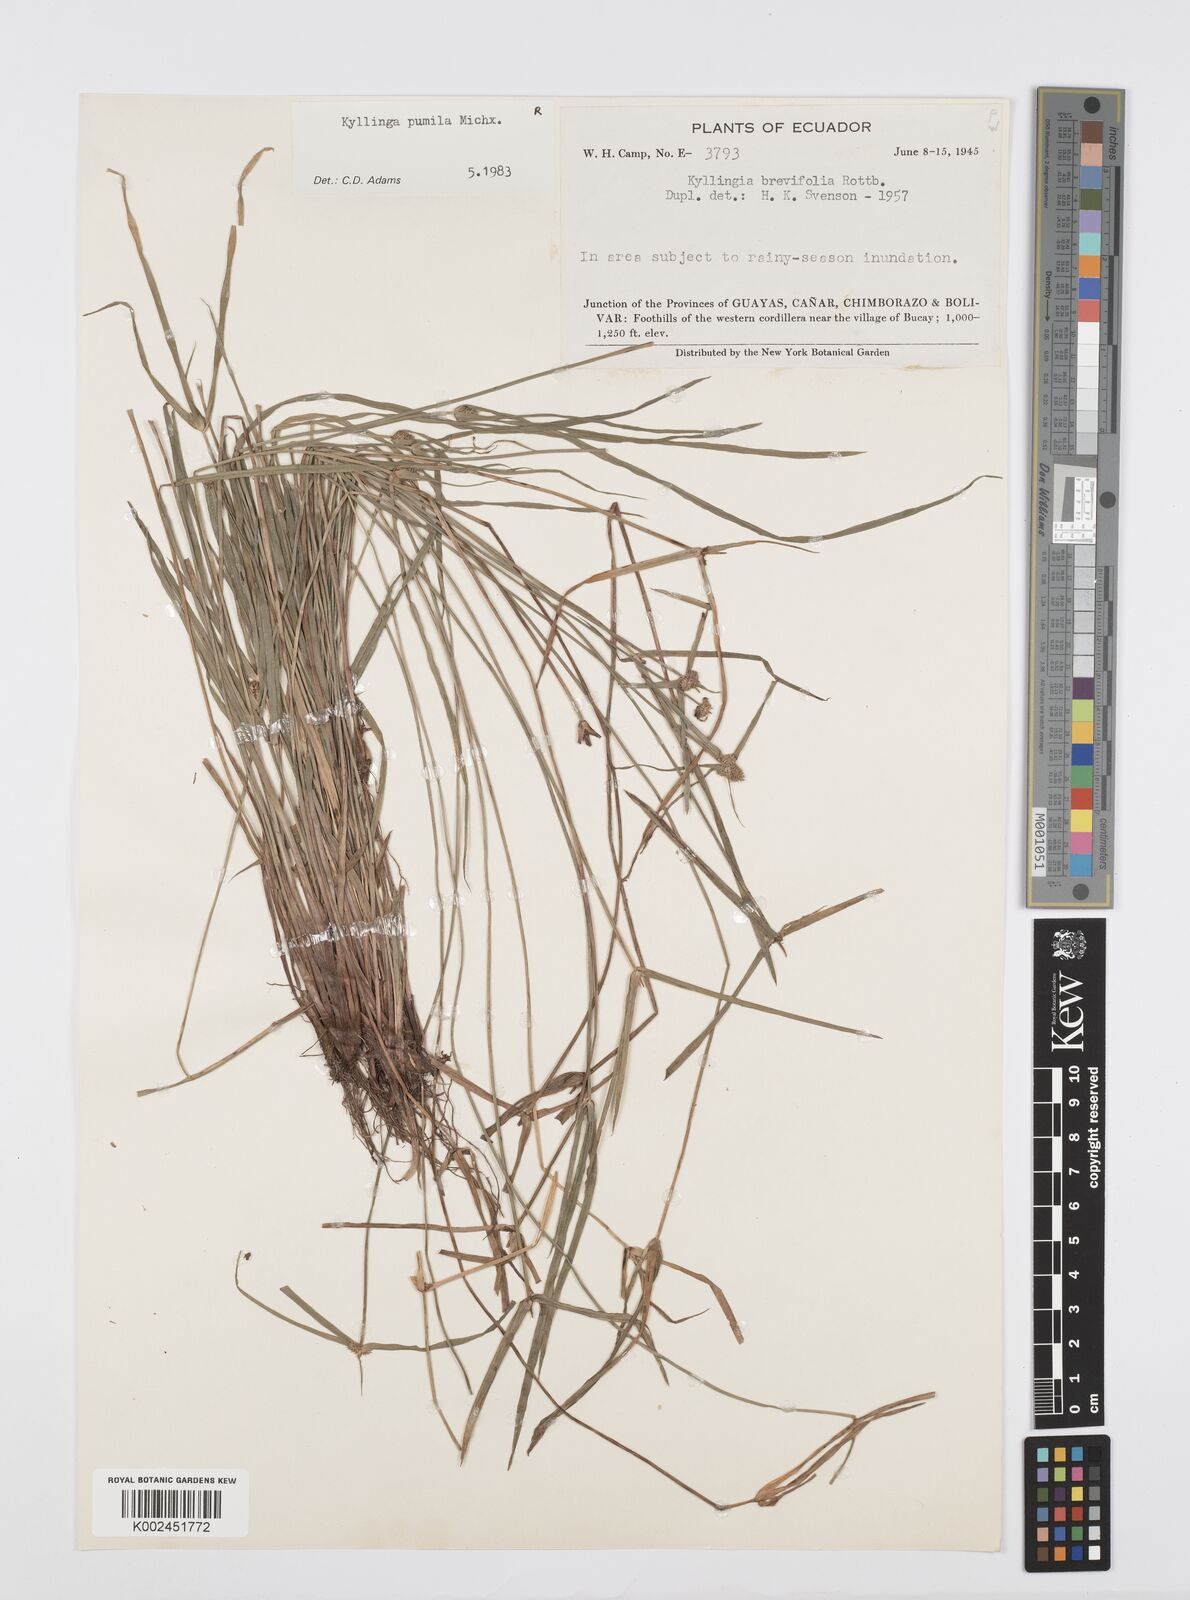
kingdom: Plantae
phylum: Tracheophyta
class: Liliopsida
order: Poales
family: Cyperaceae
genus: Cyperus
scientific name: Cyperus
